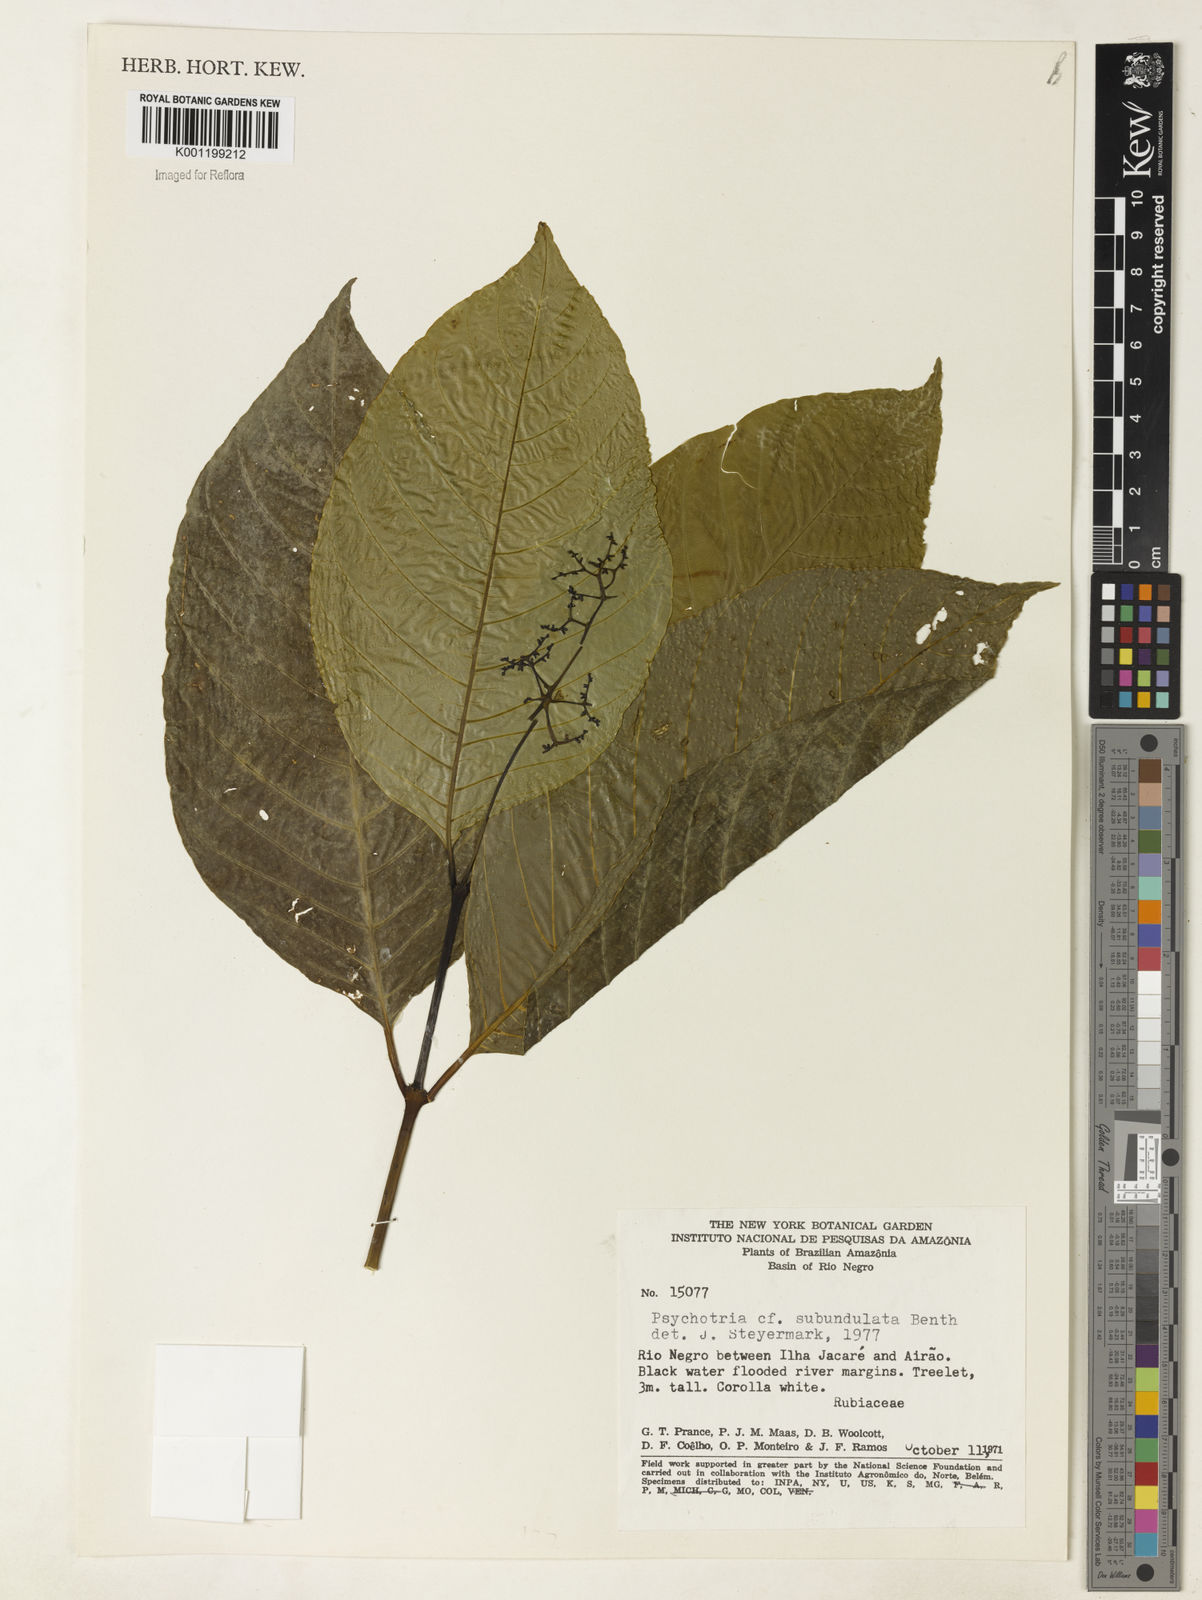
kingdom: Plantae
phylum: Tracheophyta
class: Magnoliopsida
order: Gentianales
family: Rubiaceae
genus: Palicourea
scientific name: Palicourea subundulata
